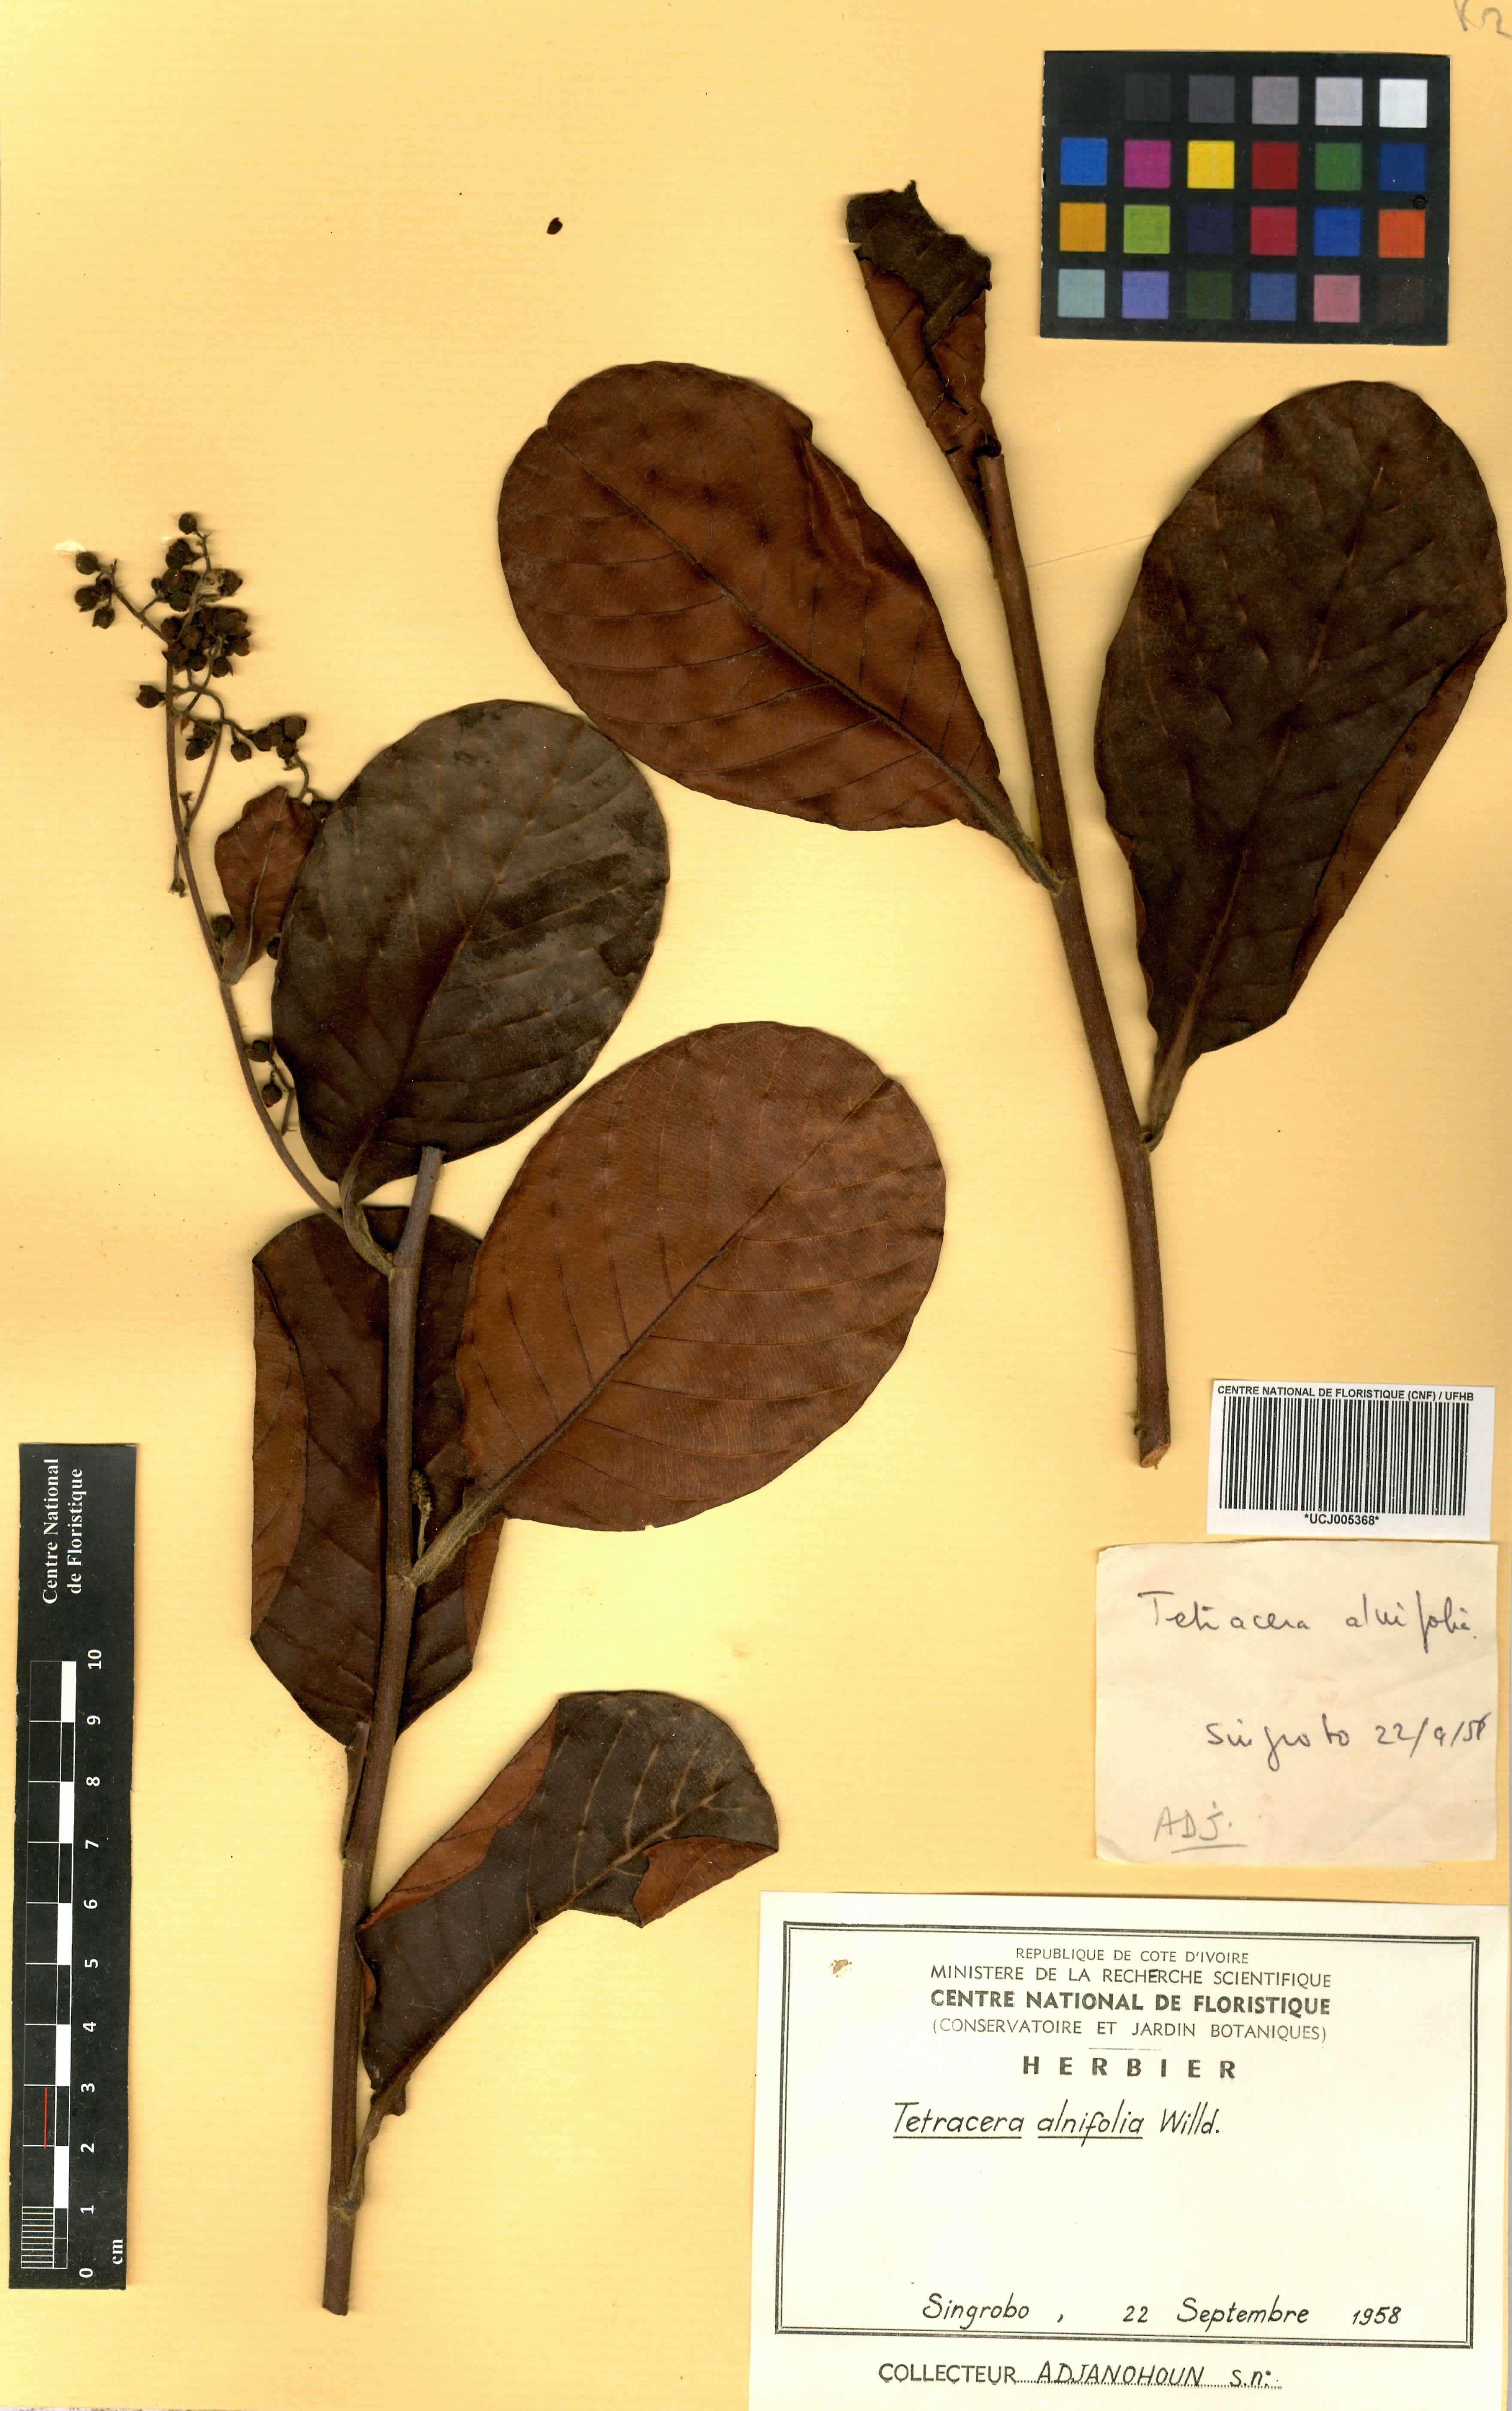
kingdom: Plantae
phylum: Tracheophyta
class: Magnoliopsida
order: Dilleniales
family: Dilleniaceae
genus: Tetracera
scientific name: Tetracera alnifolia
